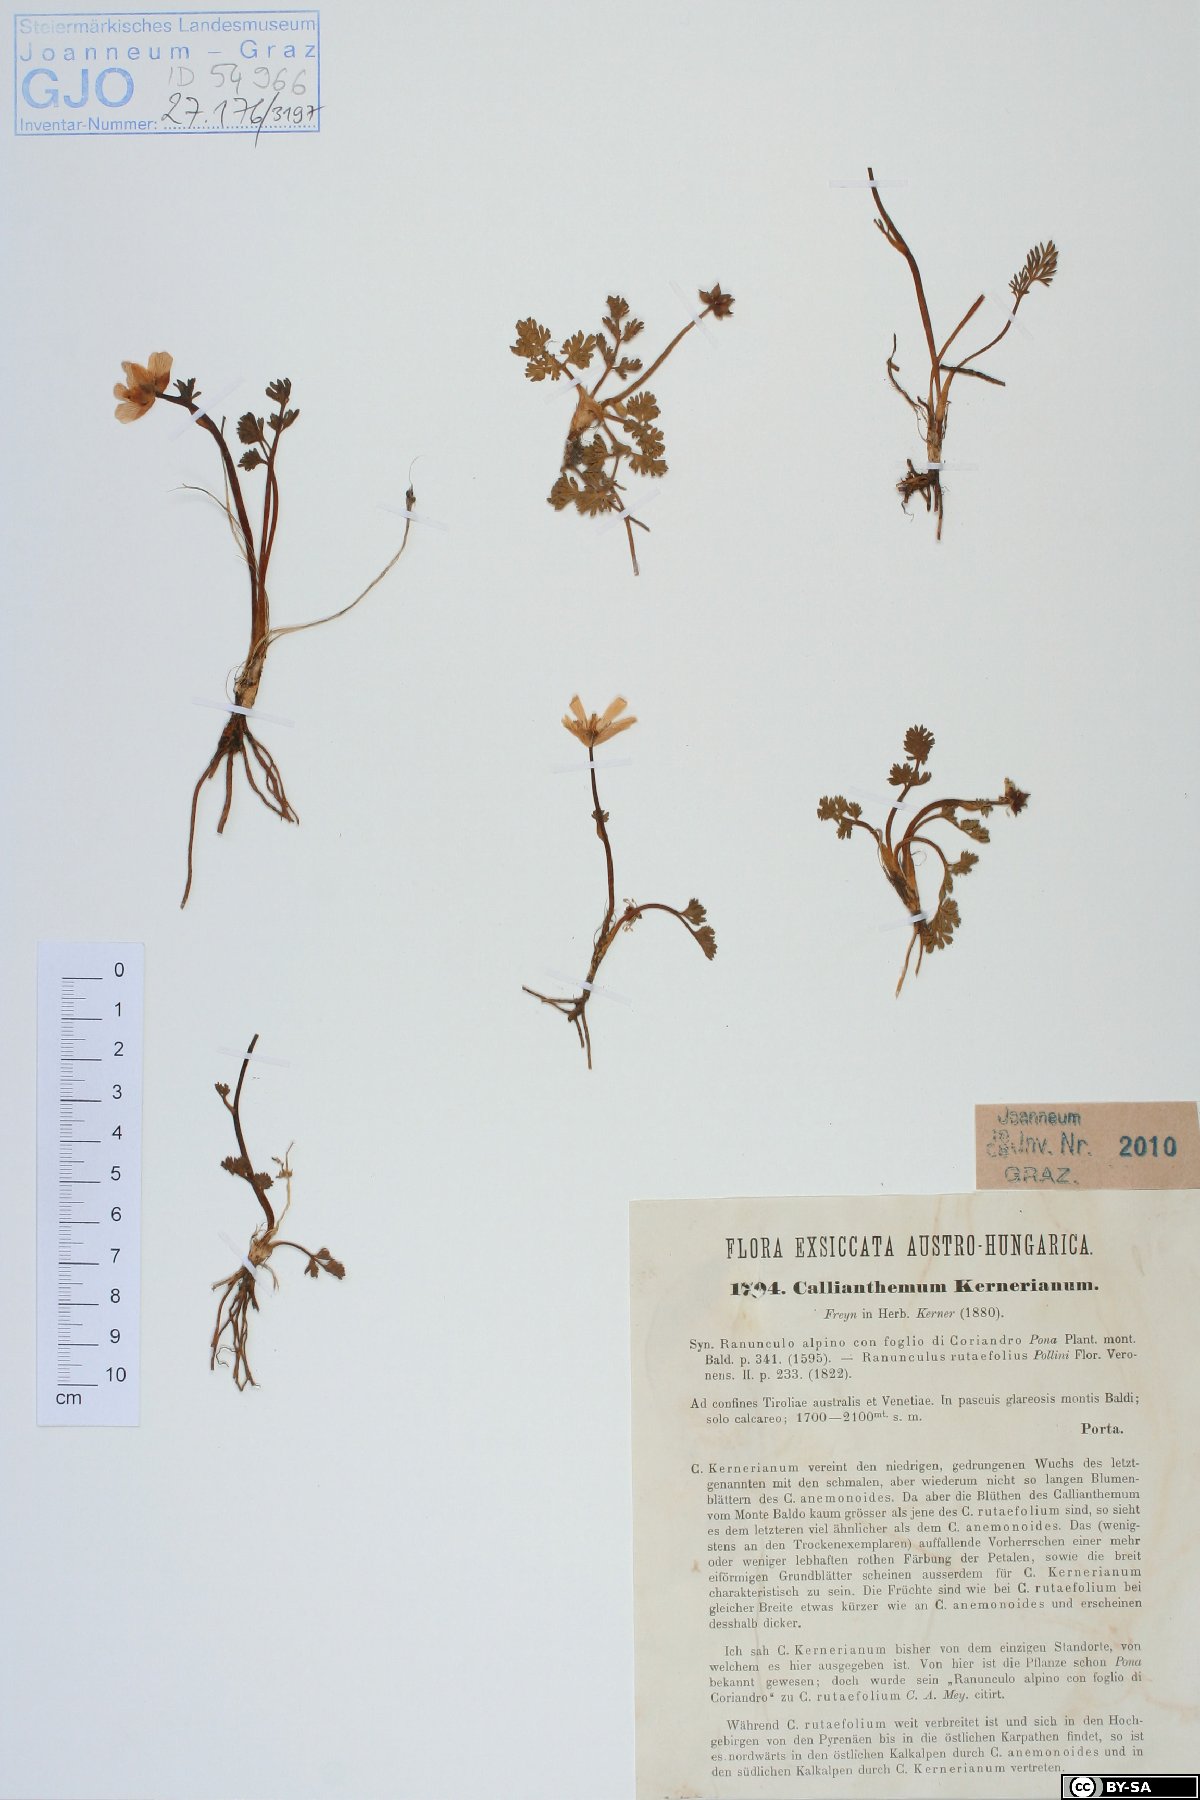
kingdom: Plantae
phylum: Tracheophyta
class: Magnoliopsida
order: Ranunculales
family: Ranunculaceae
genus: Callianthemum
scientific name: Callianthemum kernerianum
